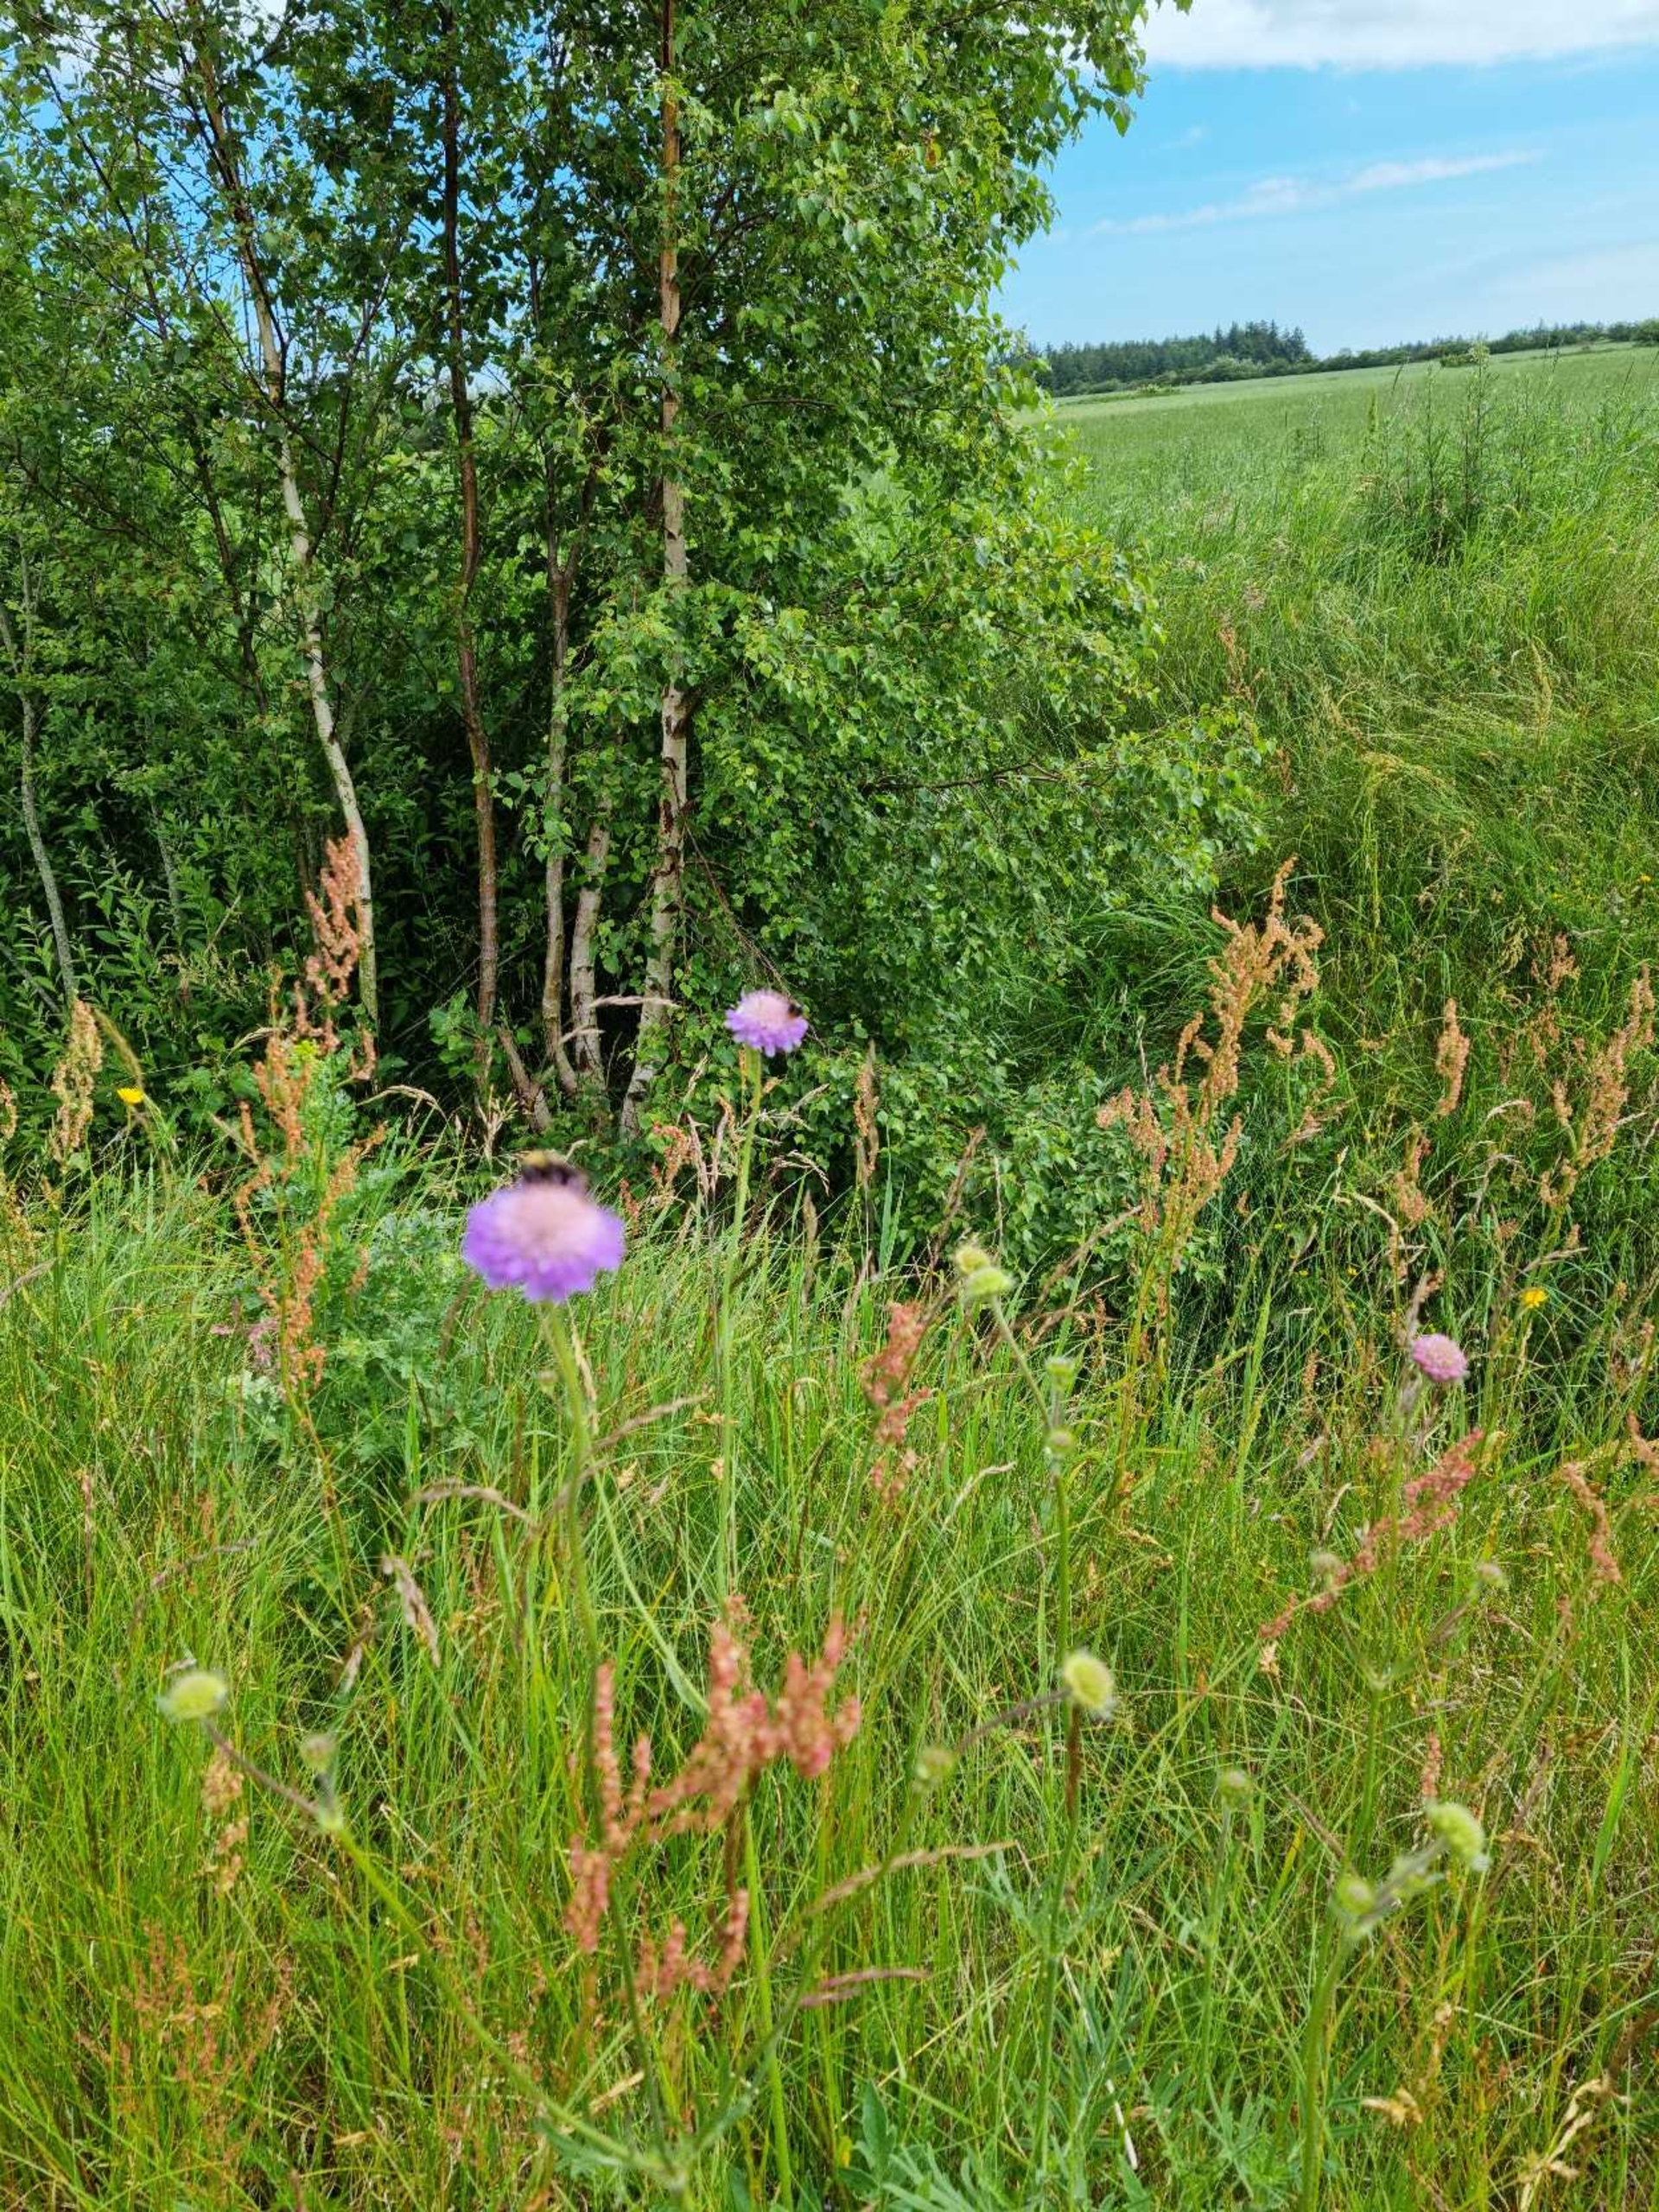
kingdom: Plantae
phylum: Tracheophyta
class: Magnoliopsida
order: Dipsacales
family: Caprifoliaceae
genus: Knautia
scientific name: Knautia arvensis
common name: Blåhat
